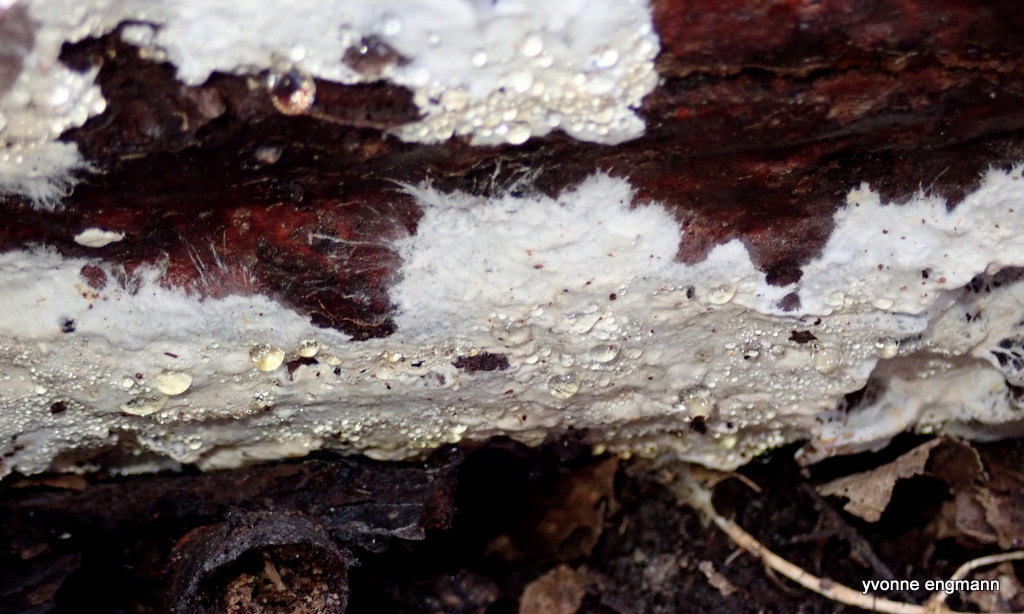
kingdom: Fungi
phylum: Basidiomycota
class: Agaricomycetes
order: Corticiales
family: Corticiaceae
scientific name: Corticiaceae
